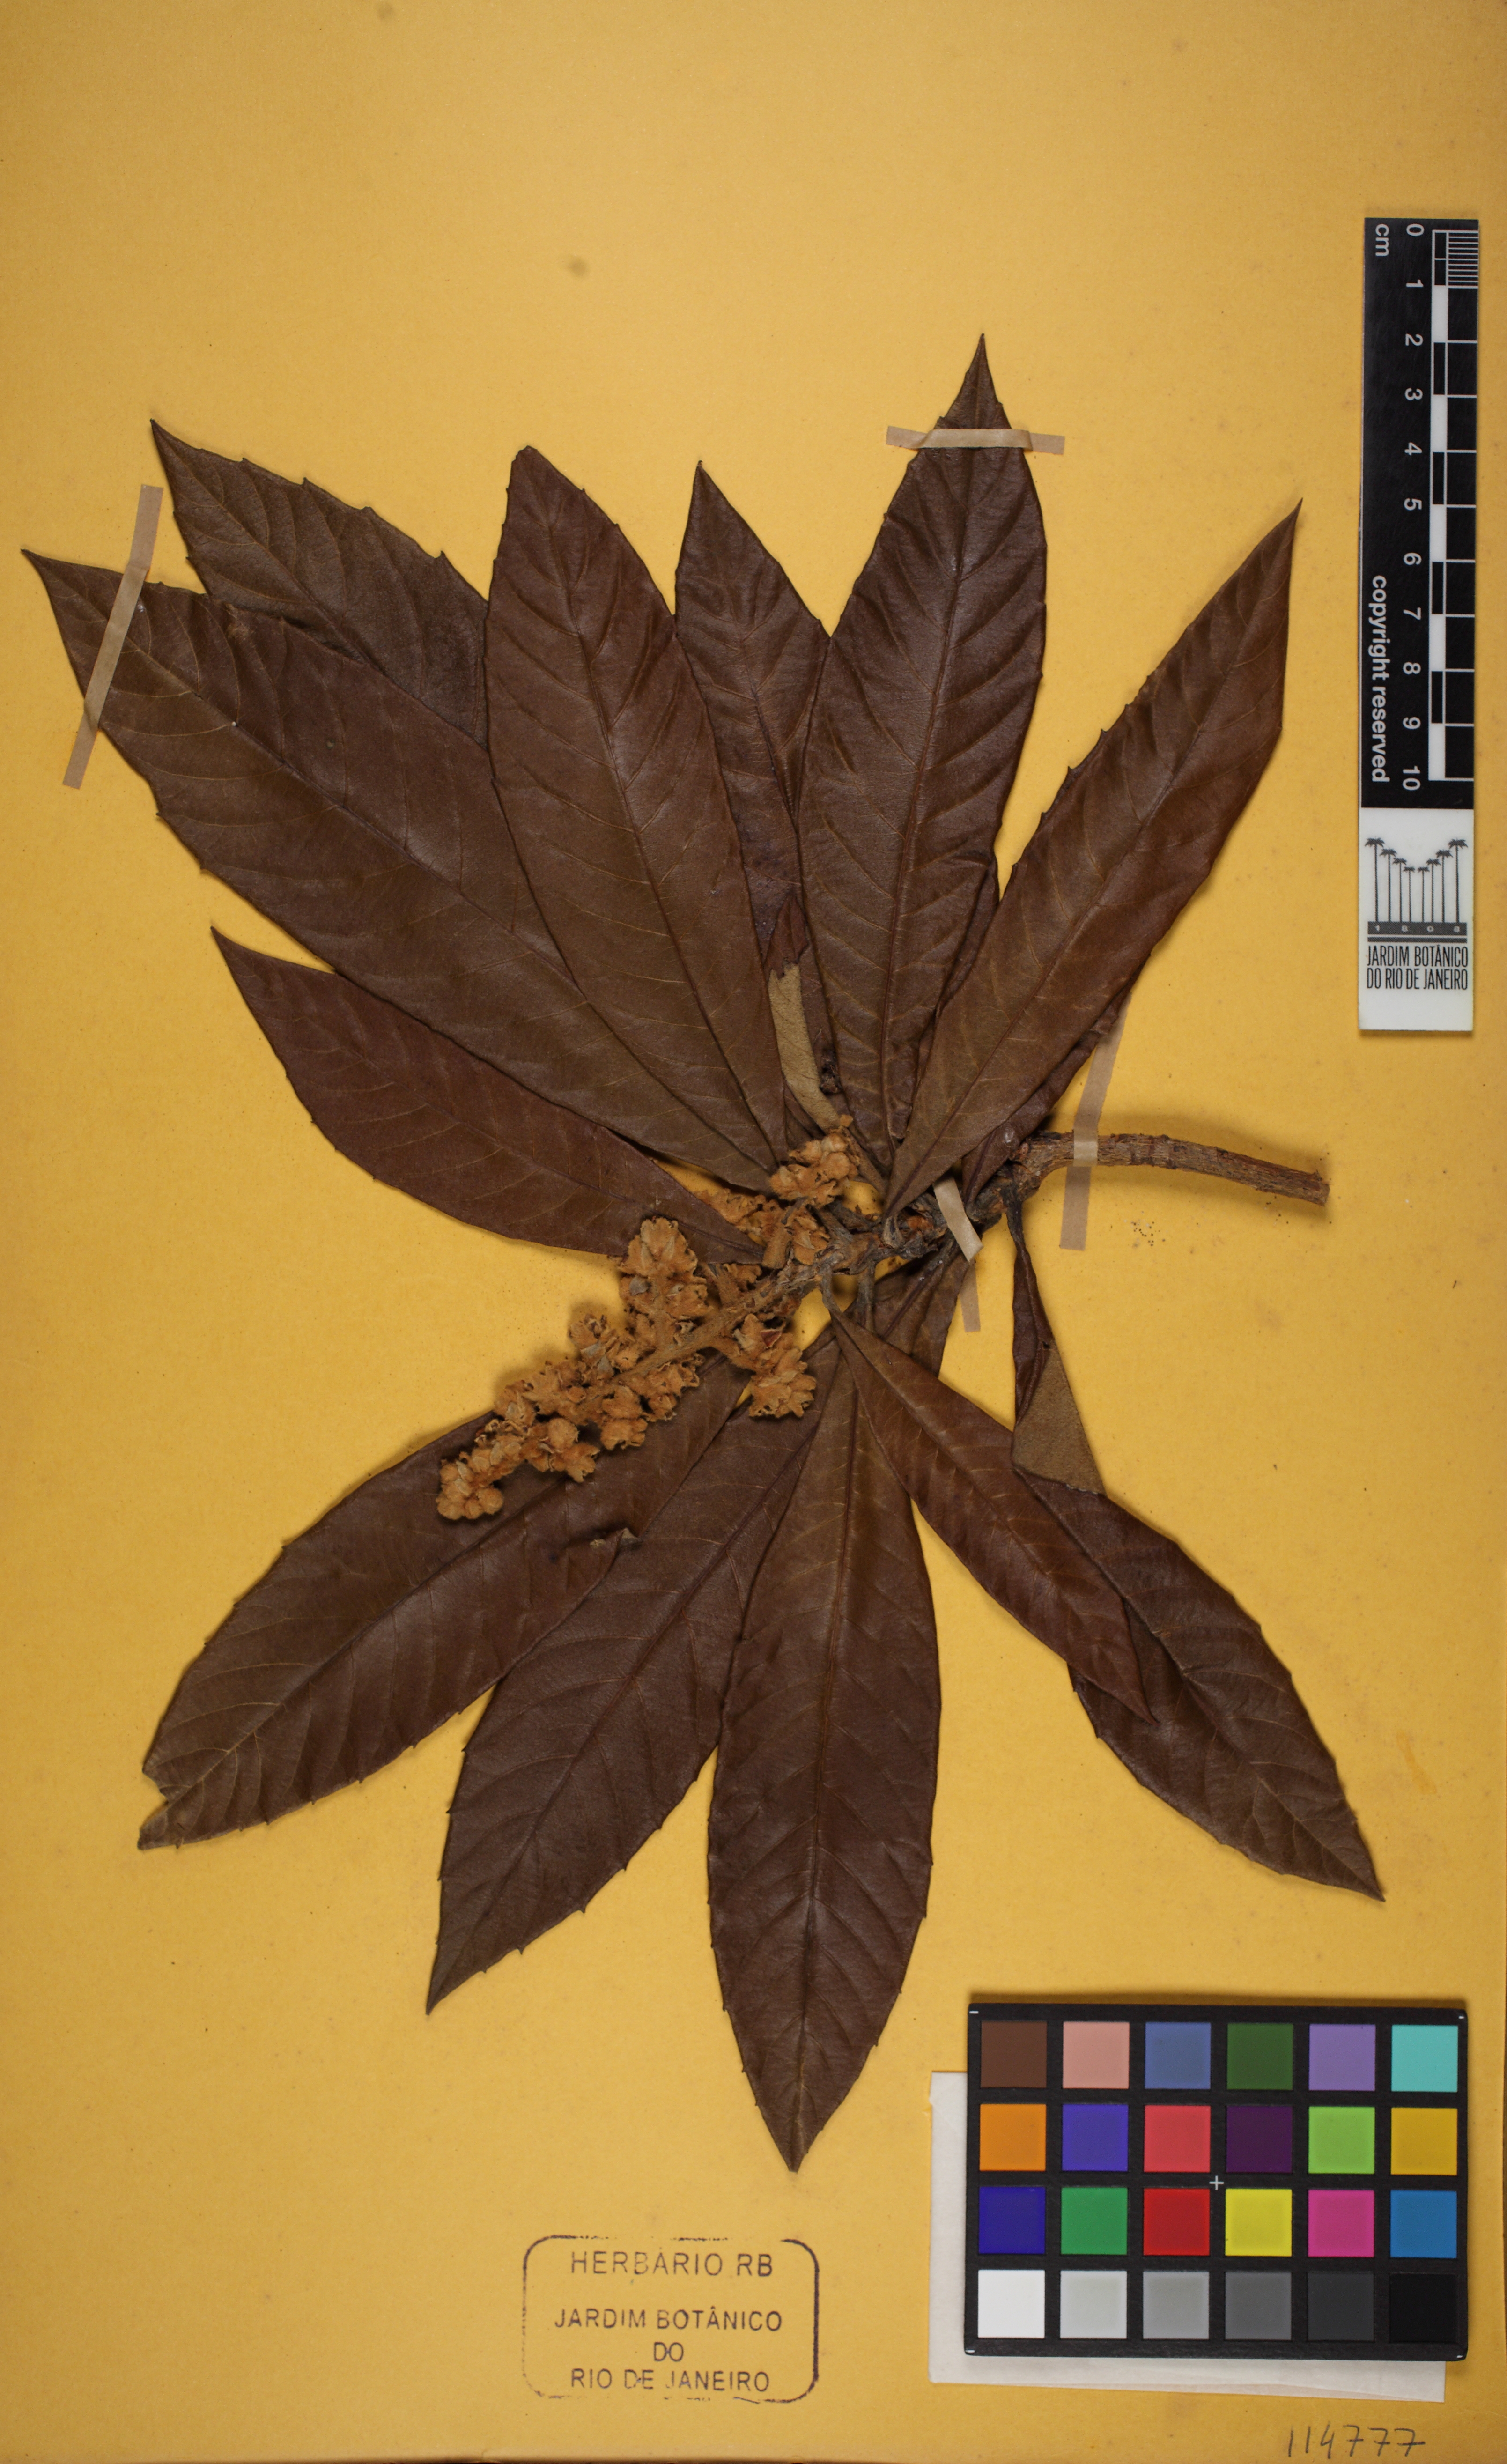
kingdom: Plantae
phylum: Tracheophyta
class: Magnoliopsida
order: Rosales
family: Rosaceae
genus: Rhaphiolepis
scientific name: Rhaphiolepis bibas
